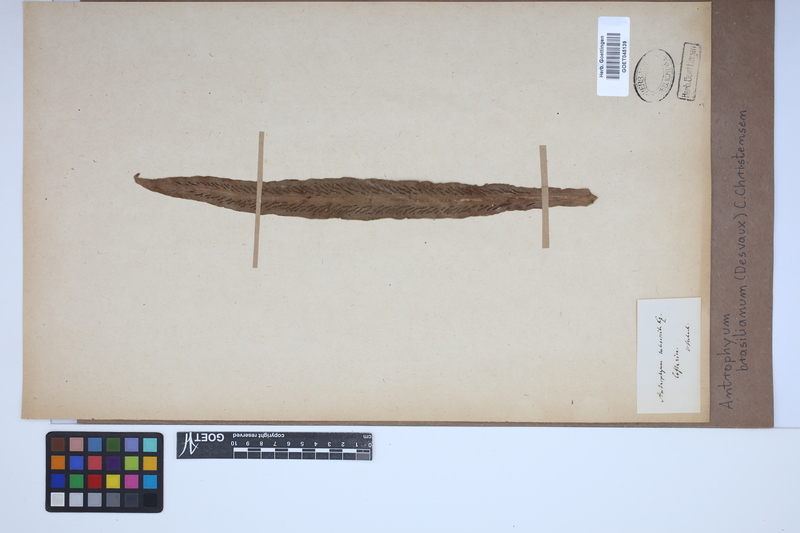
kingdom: Plantae
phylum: Tracheophyta
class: Polypodiopsida
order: Polypodiales
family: Pteridaceae
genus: Polytaenium
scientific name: Polytaenium cajenense
